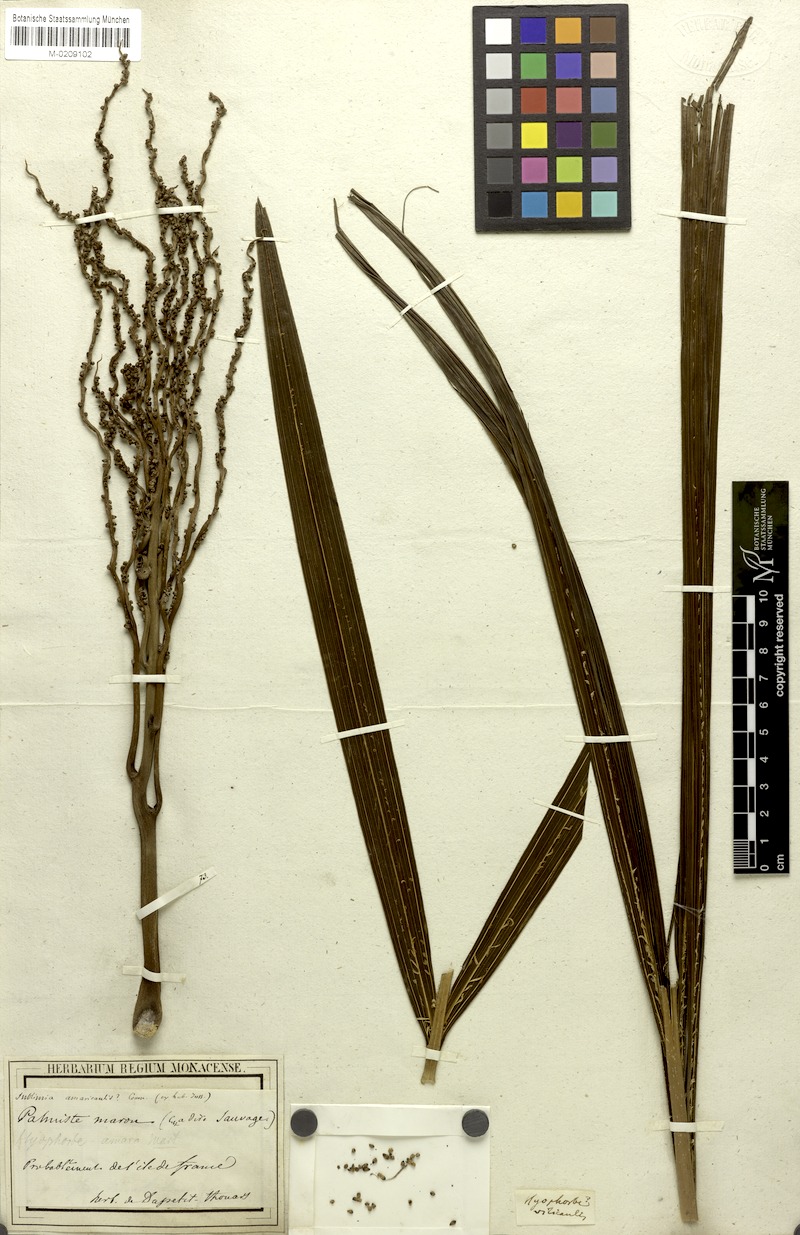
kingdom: Plantae
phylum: Tracheophyta
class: Liliopsida
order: Arecales
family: Arecaceae
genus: Hyophorbe
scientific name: Hyophorbe amaricaulis
